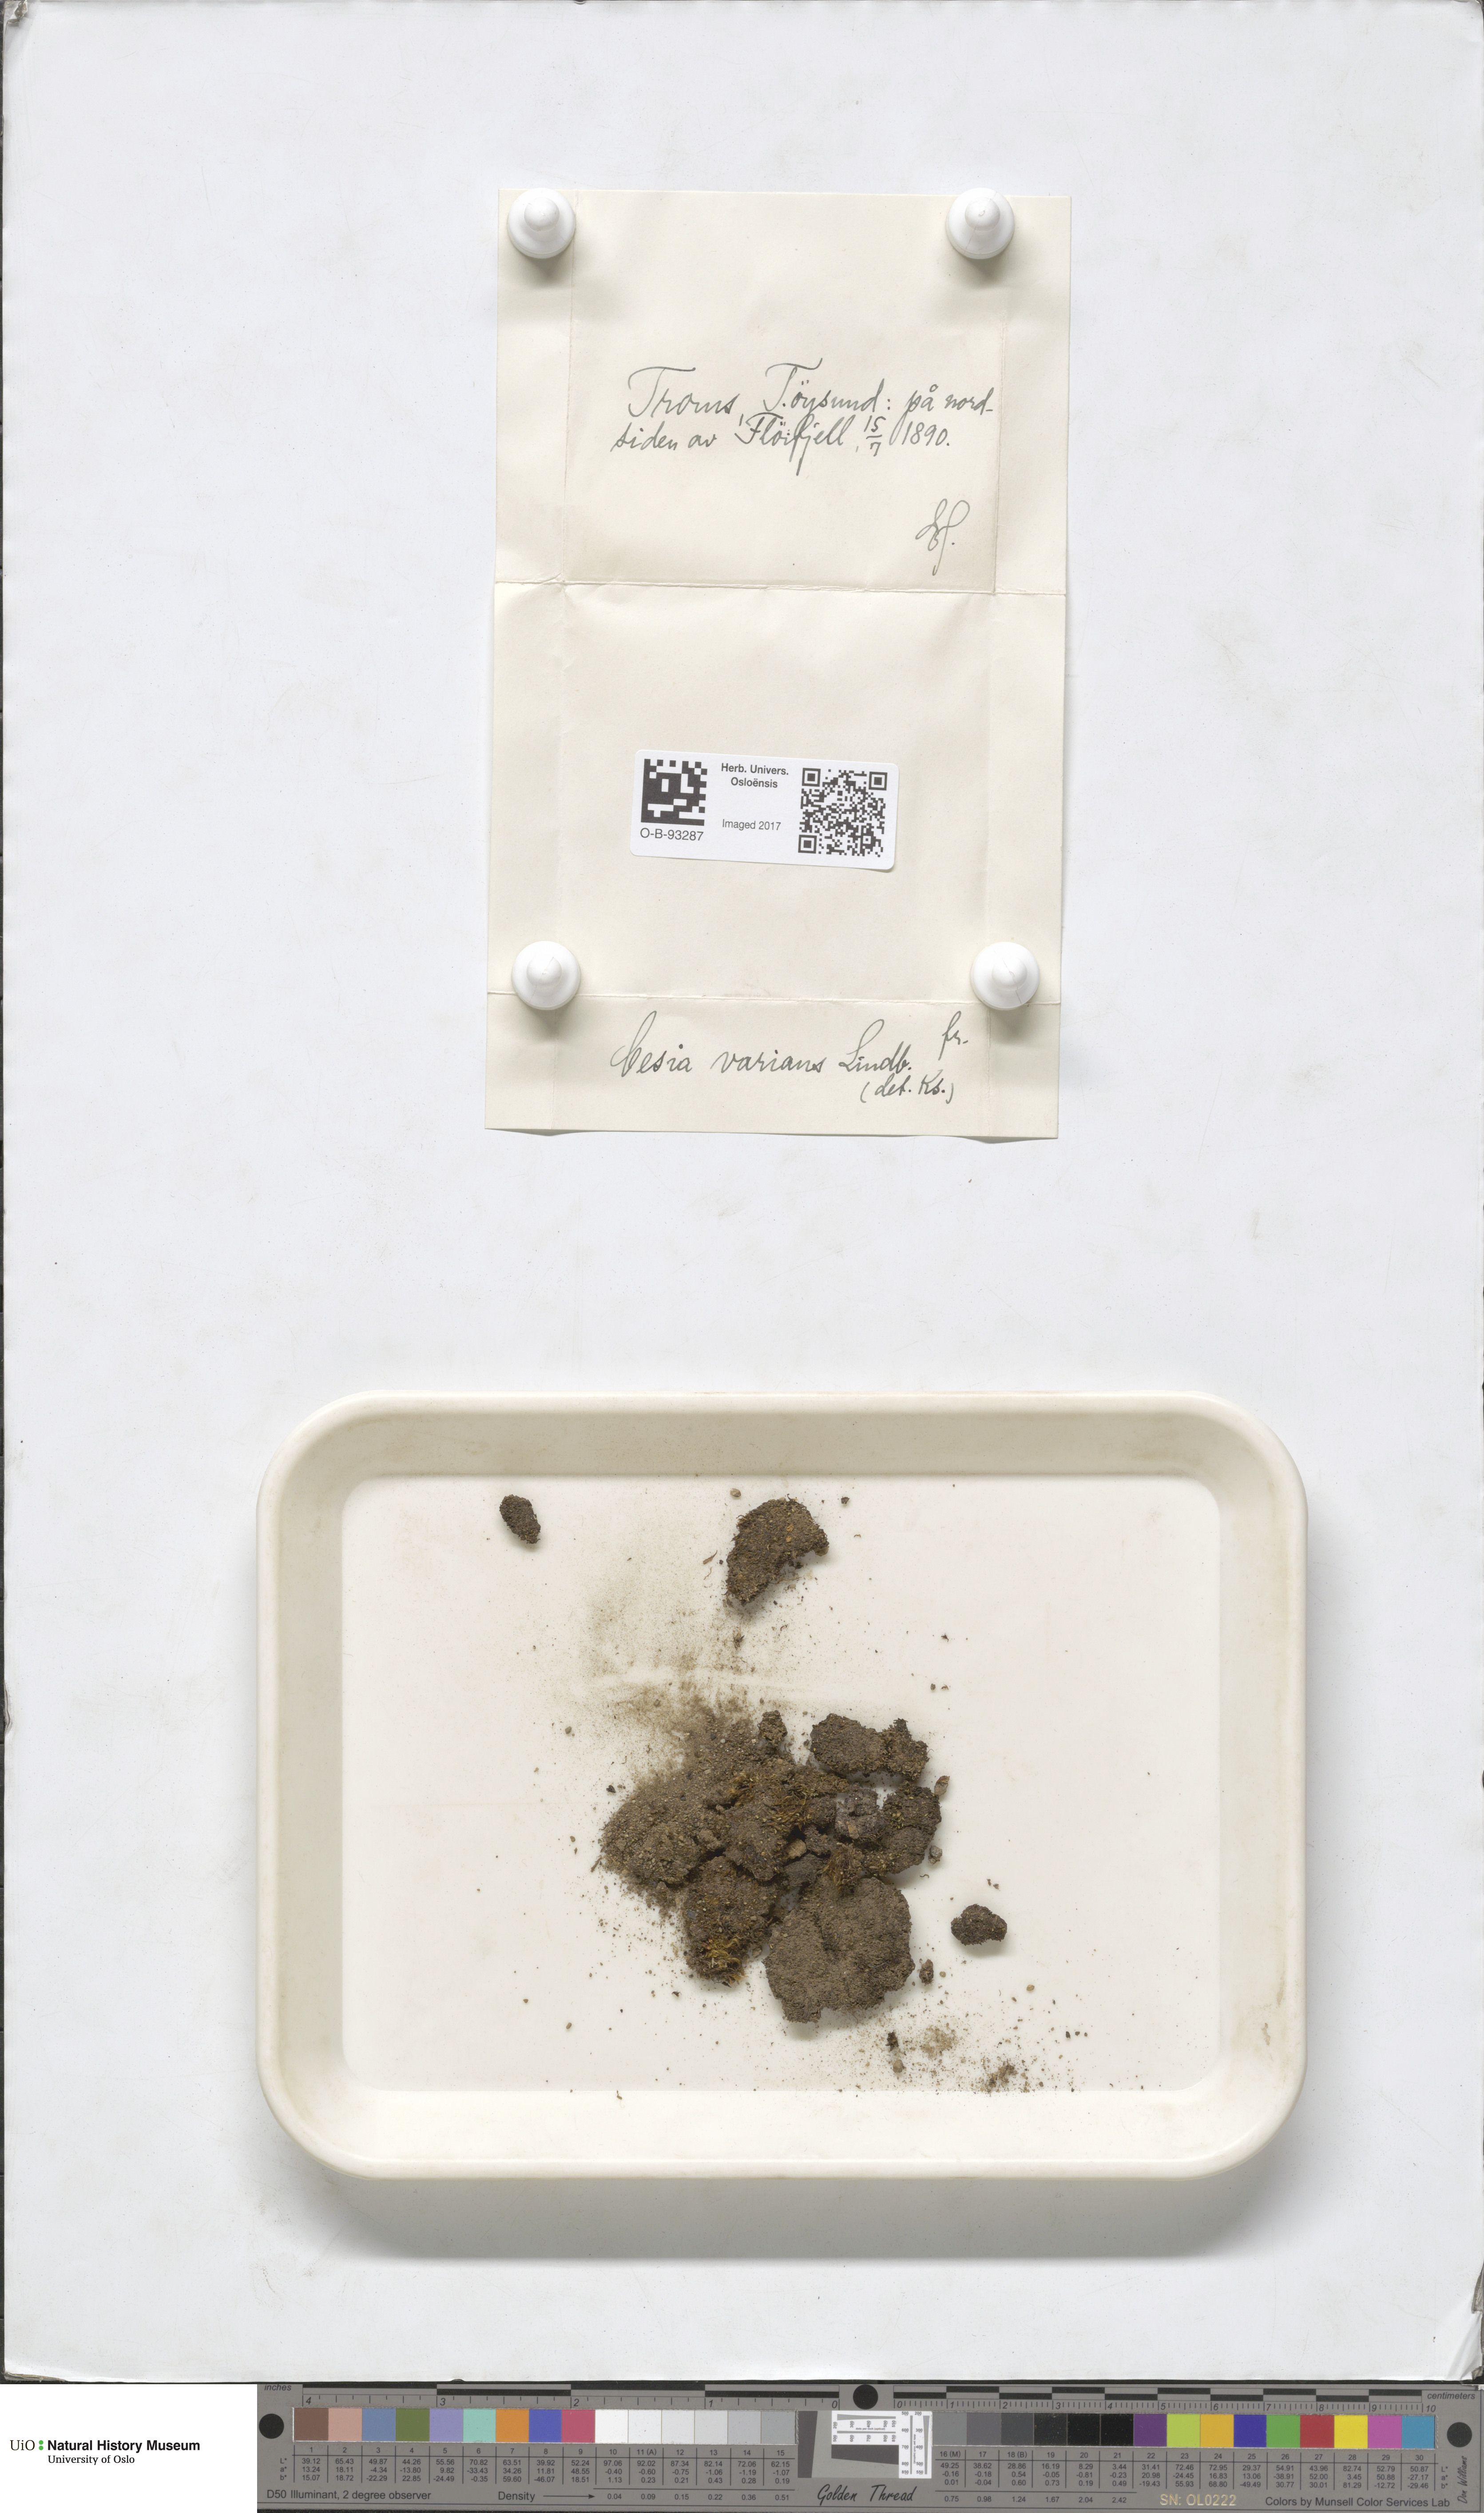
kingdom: Plantae
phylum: Marchantiophyta
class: Jungermanniopsida
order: Jungermanniales
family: Gymnomitriaceae
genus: Gymnomitrion
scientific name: Gymnomitrion brevissimum
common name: Snow rustwort
